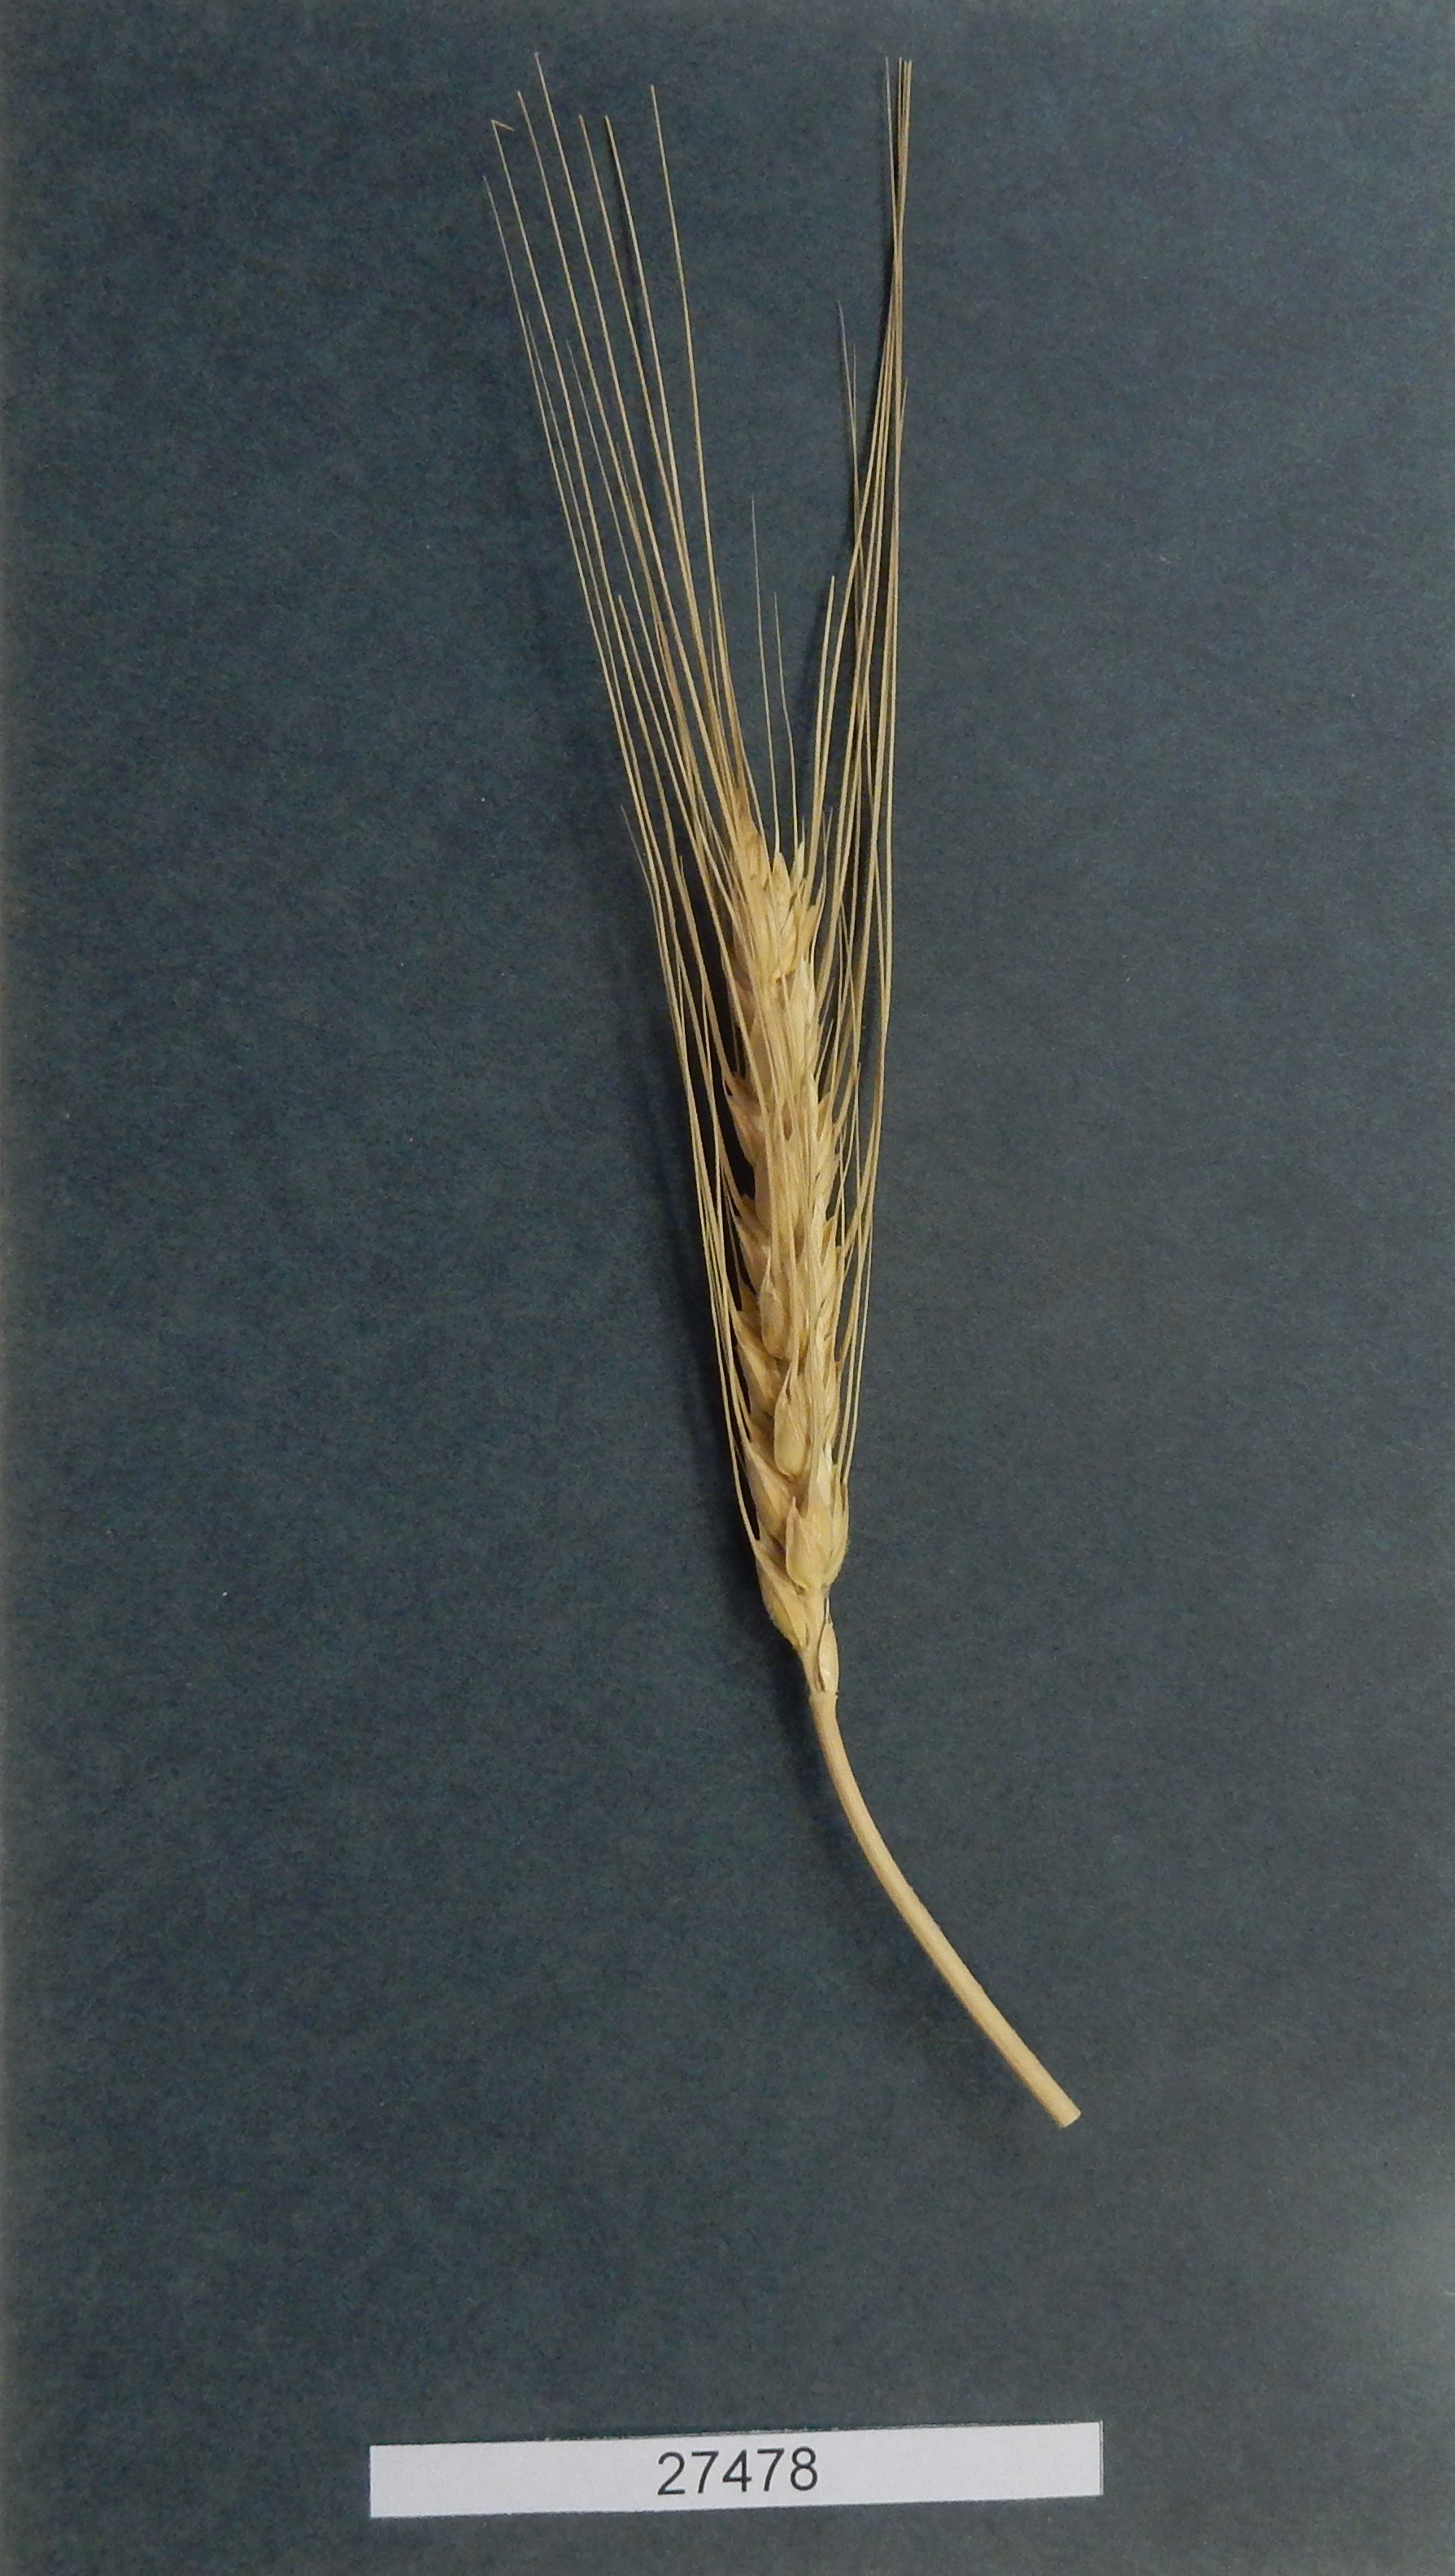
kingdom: Plantae
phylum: Tracheophyta
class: Liliopsida
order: Poales
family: Poaceae
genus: Triticum
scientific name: Triticum aestivum
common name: Common wheat
